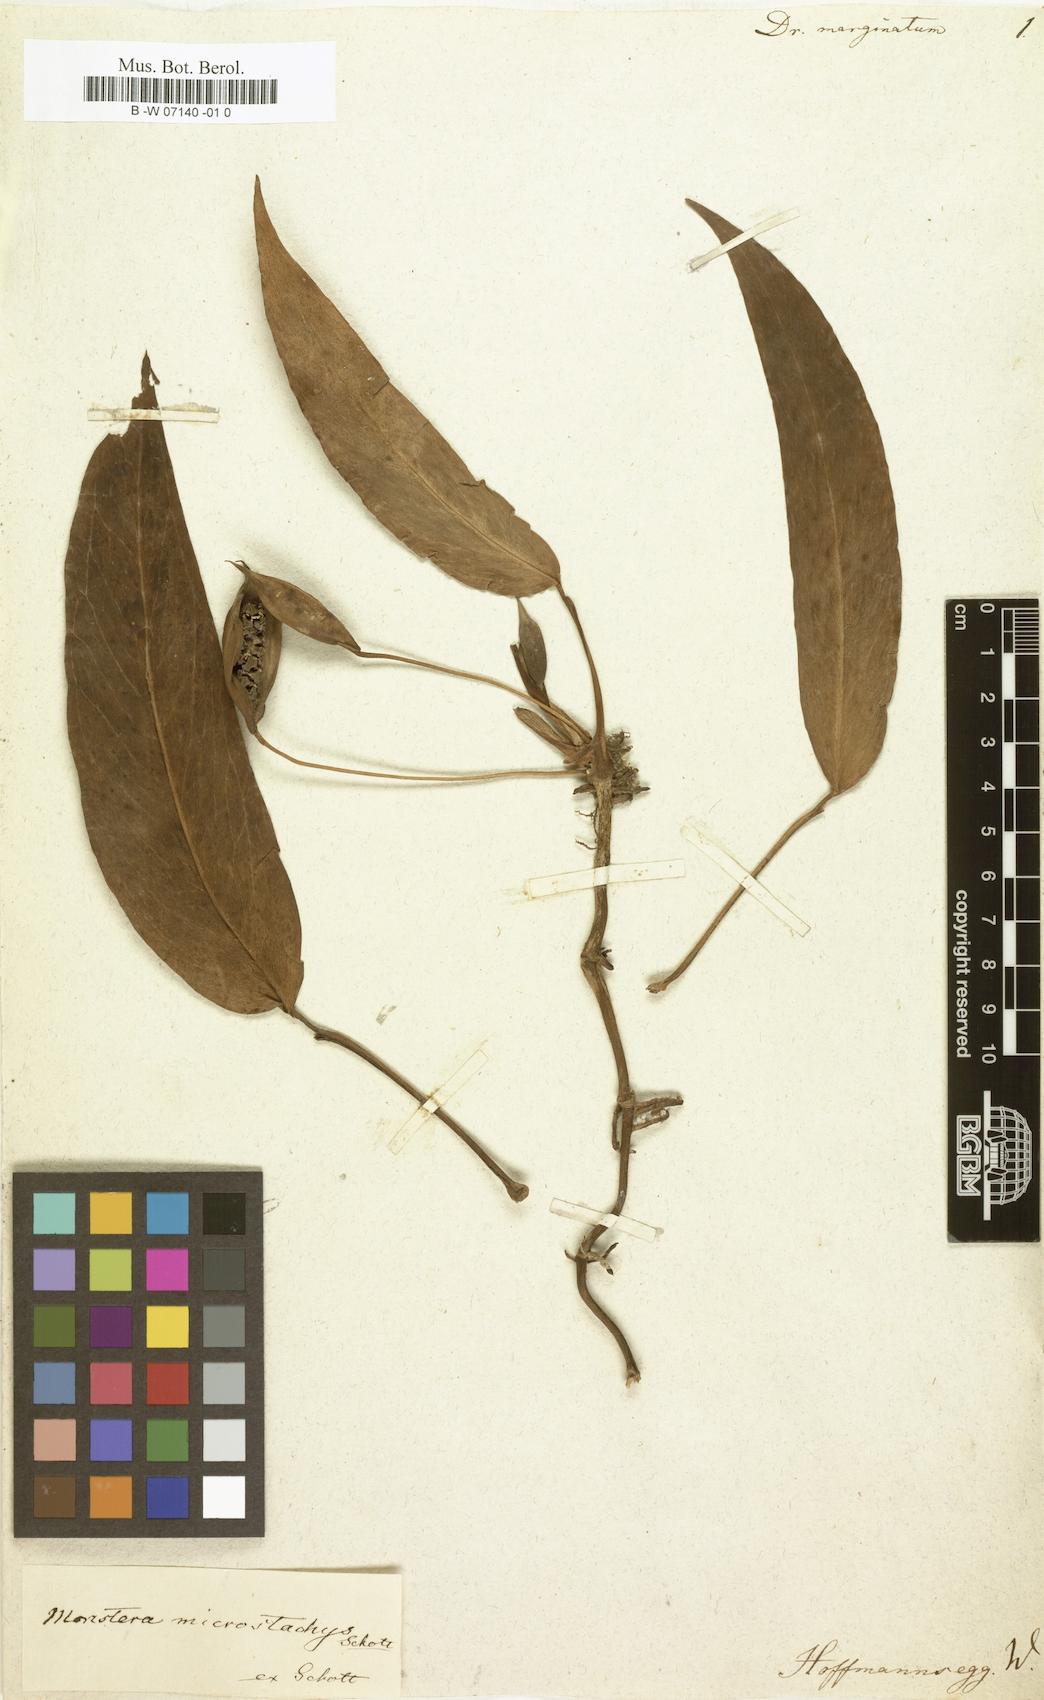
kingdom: Plantae
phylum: Tracheophyta
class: Liliopsida
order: Alismatales
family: Araceae
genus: Dracontium
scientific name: Dracontium
